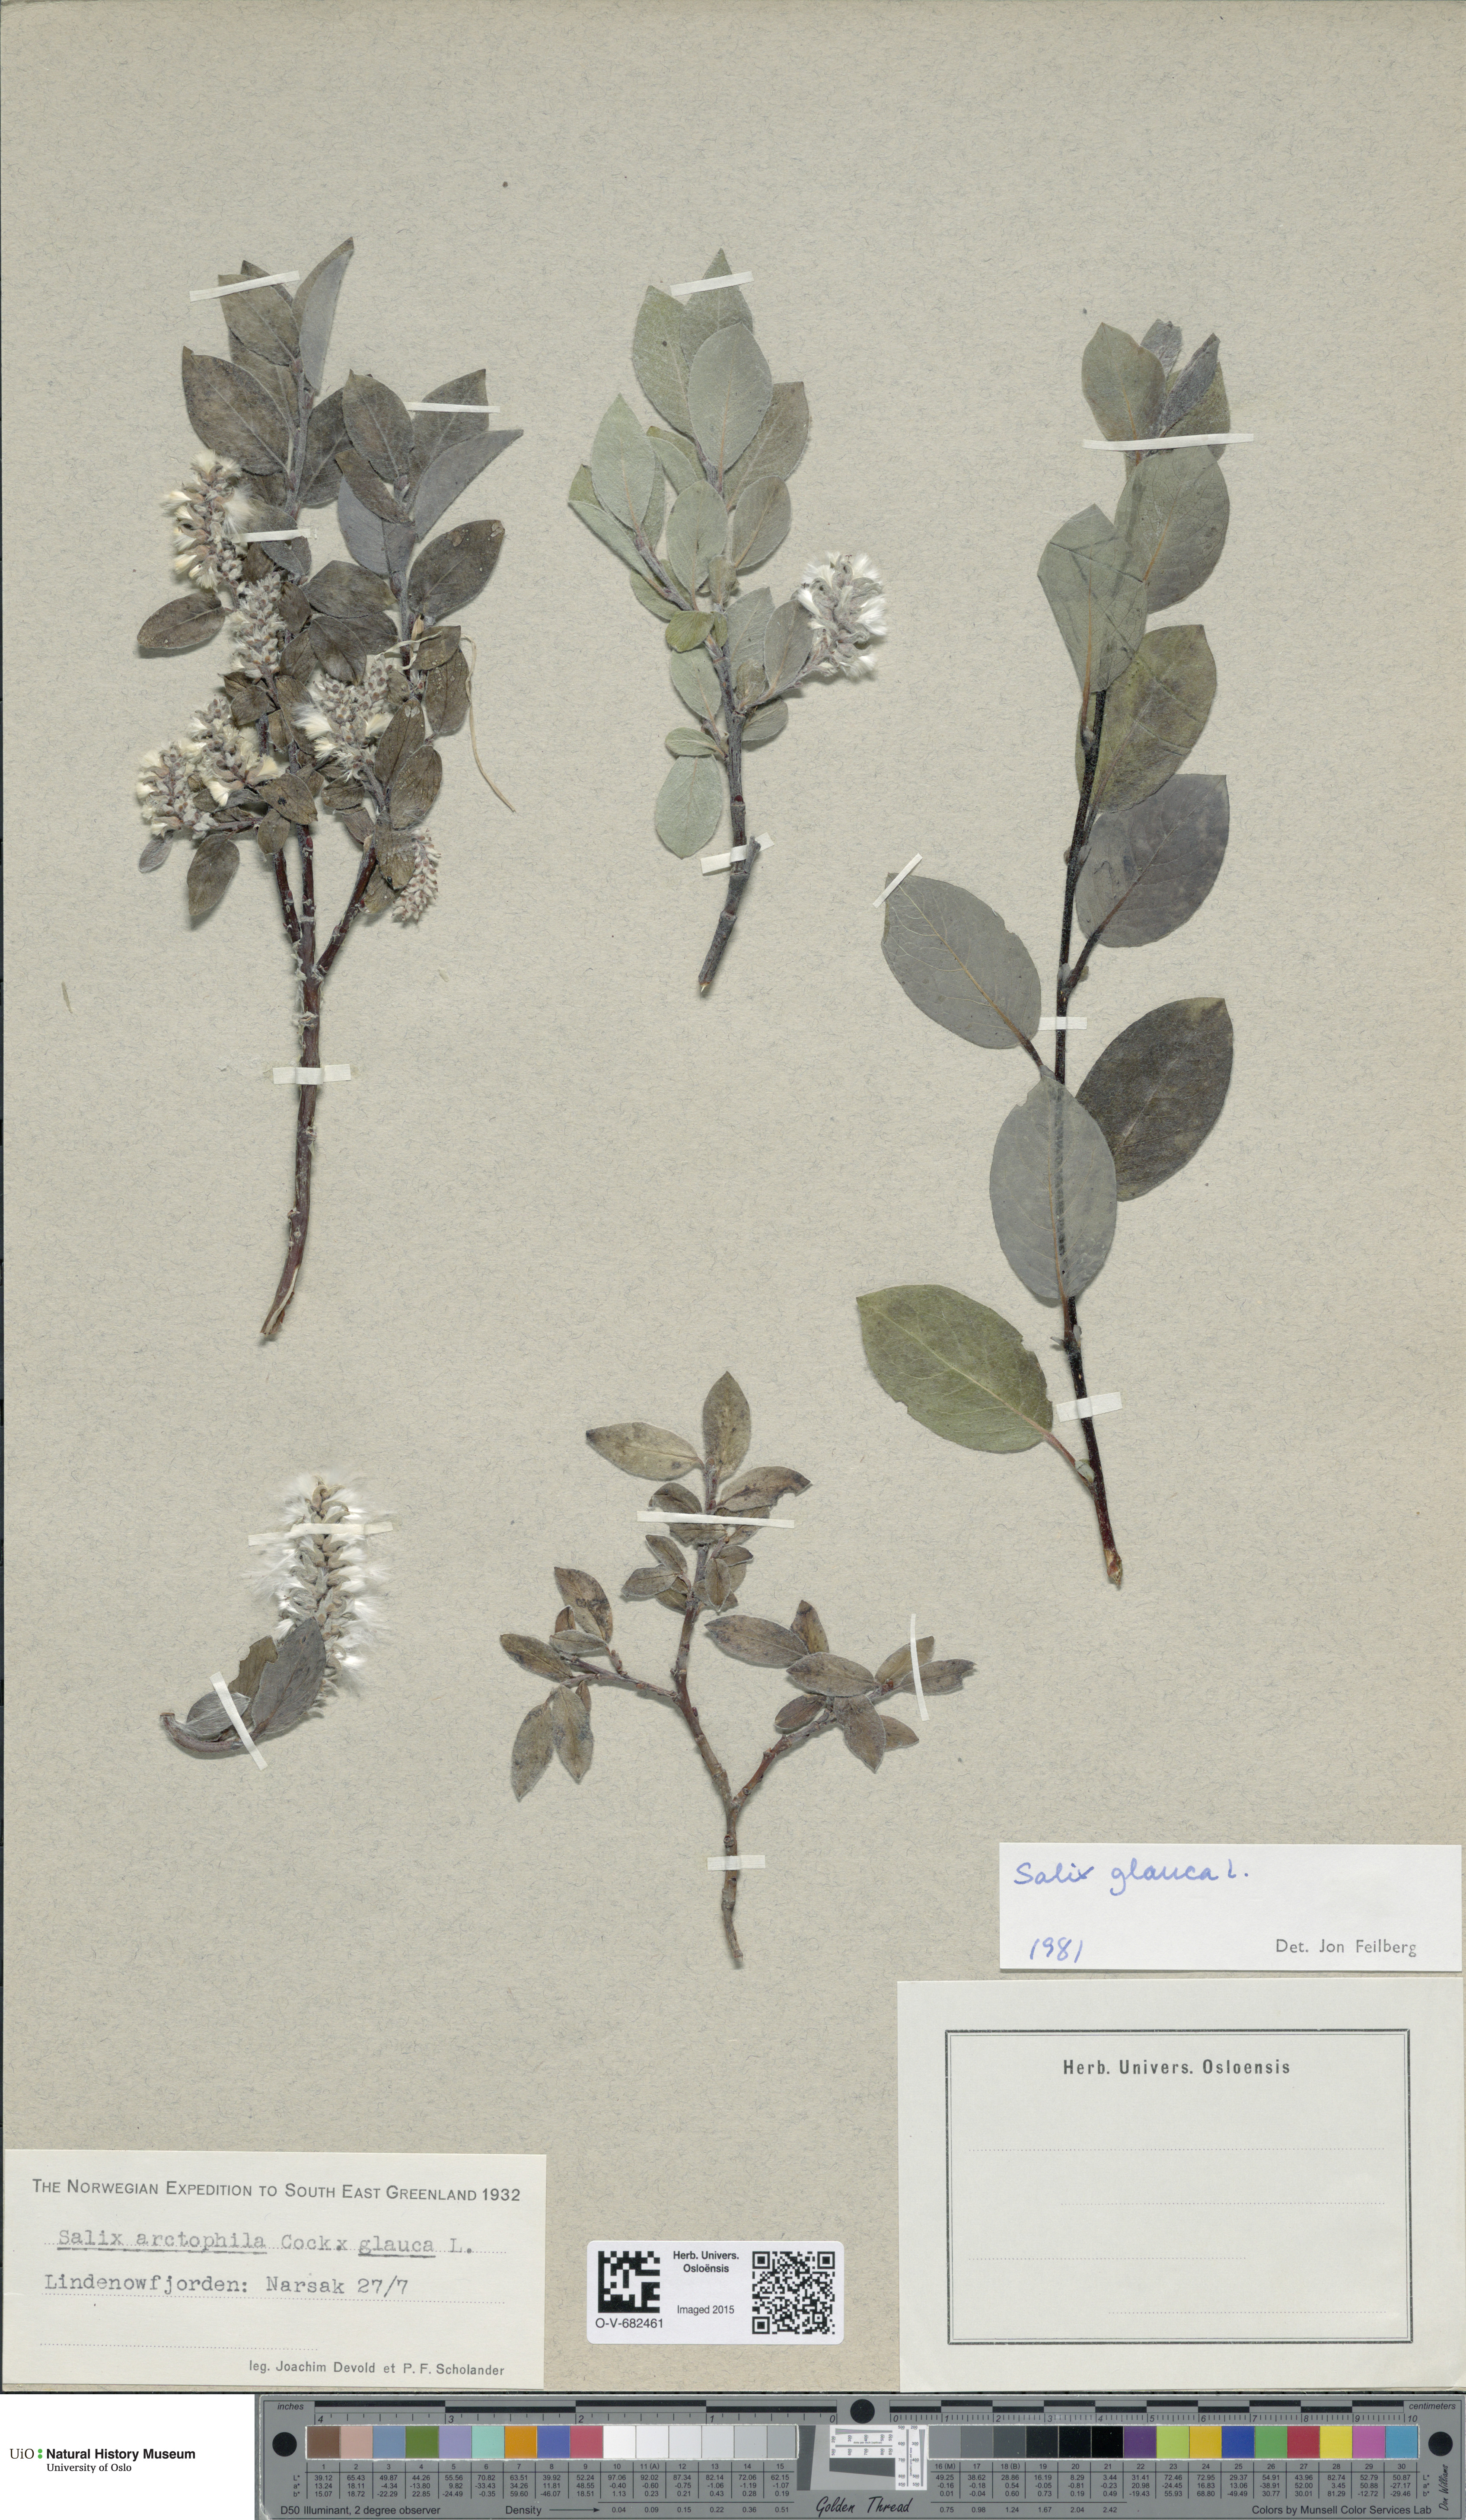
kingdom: Plantae
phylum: Tracheophyta
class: Magnoliopsida
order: Malpighiales
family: Salicaceae
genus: Salix
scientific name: Salix glauca
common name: Glaucous willow
